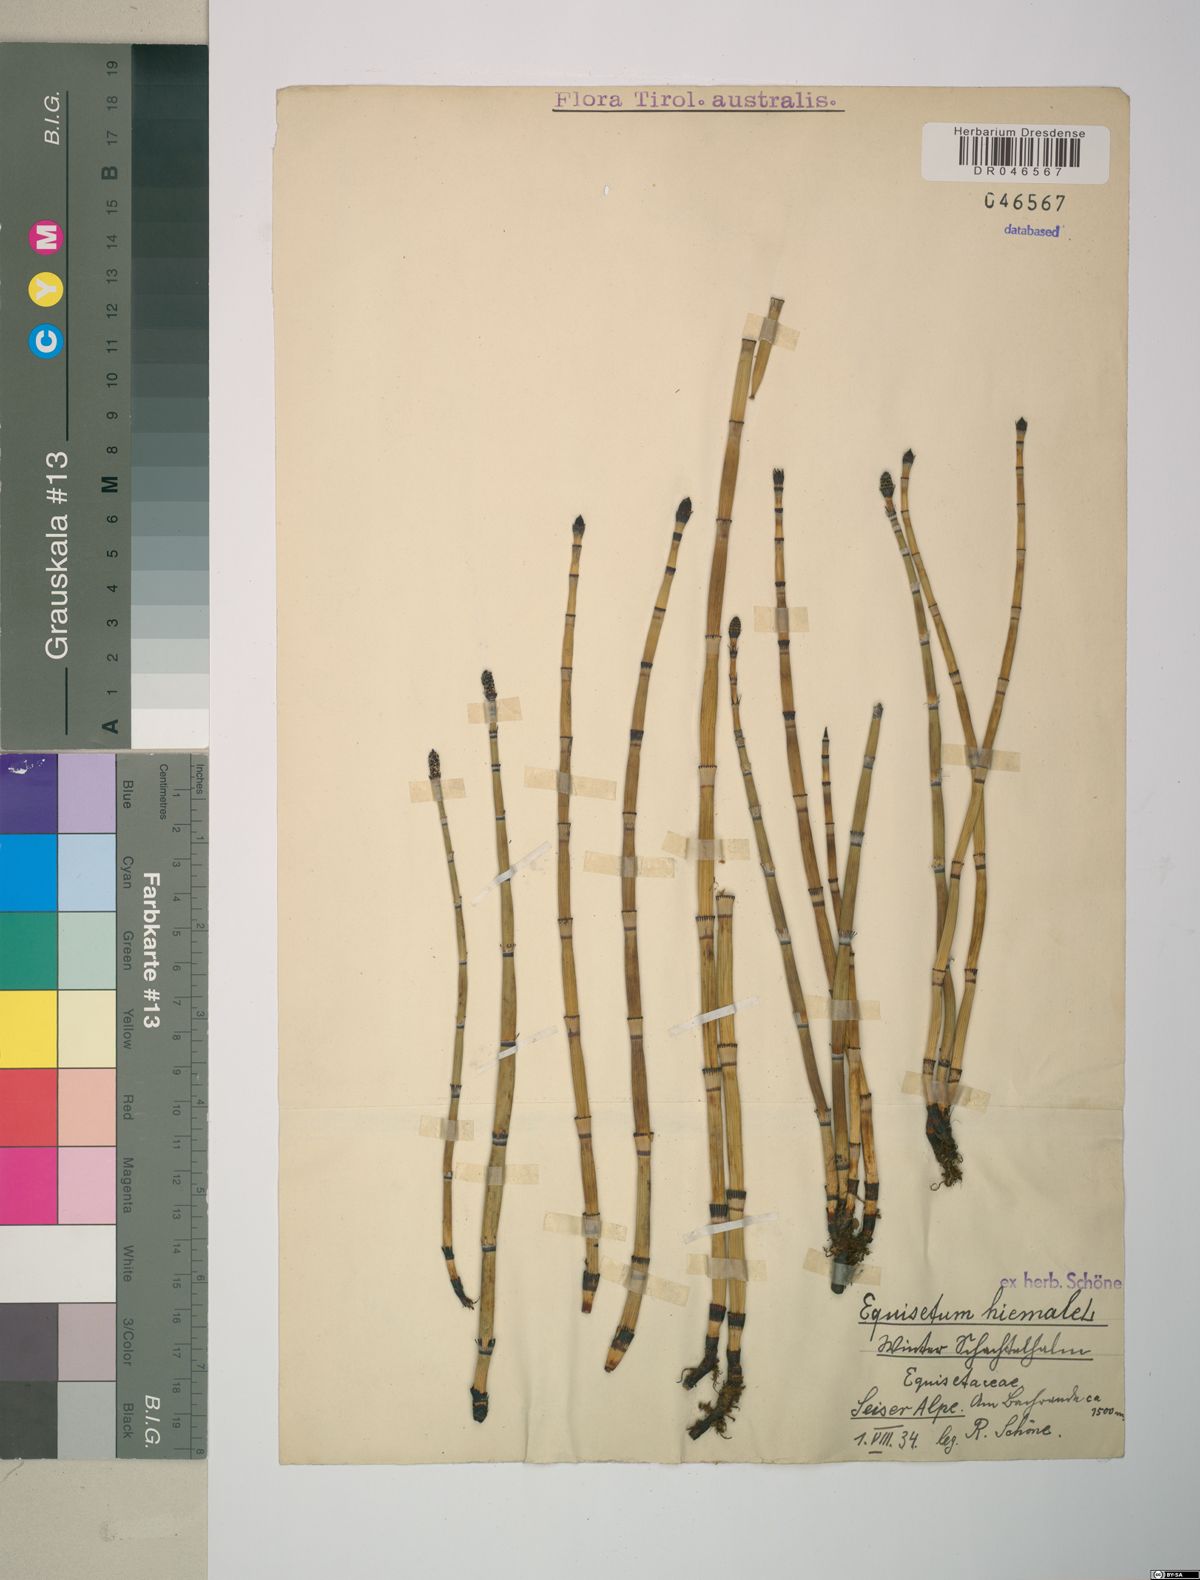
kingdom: Plantae
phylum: Tracheophyta
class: Polypodiopsida
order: Equisetales
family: Equisetaceae
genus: Equisetum
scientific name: Equisetum hyemale
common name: Rough horsetail
